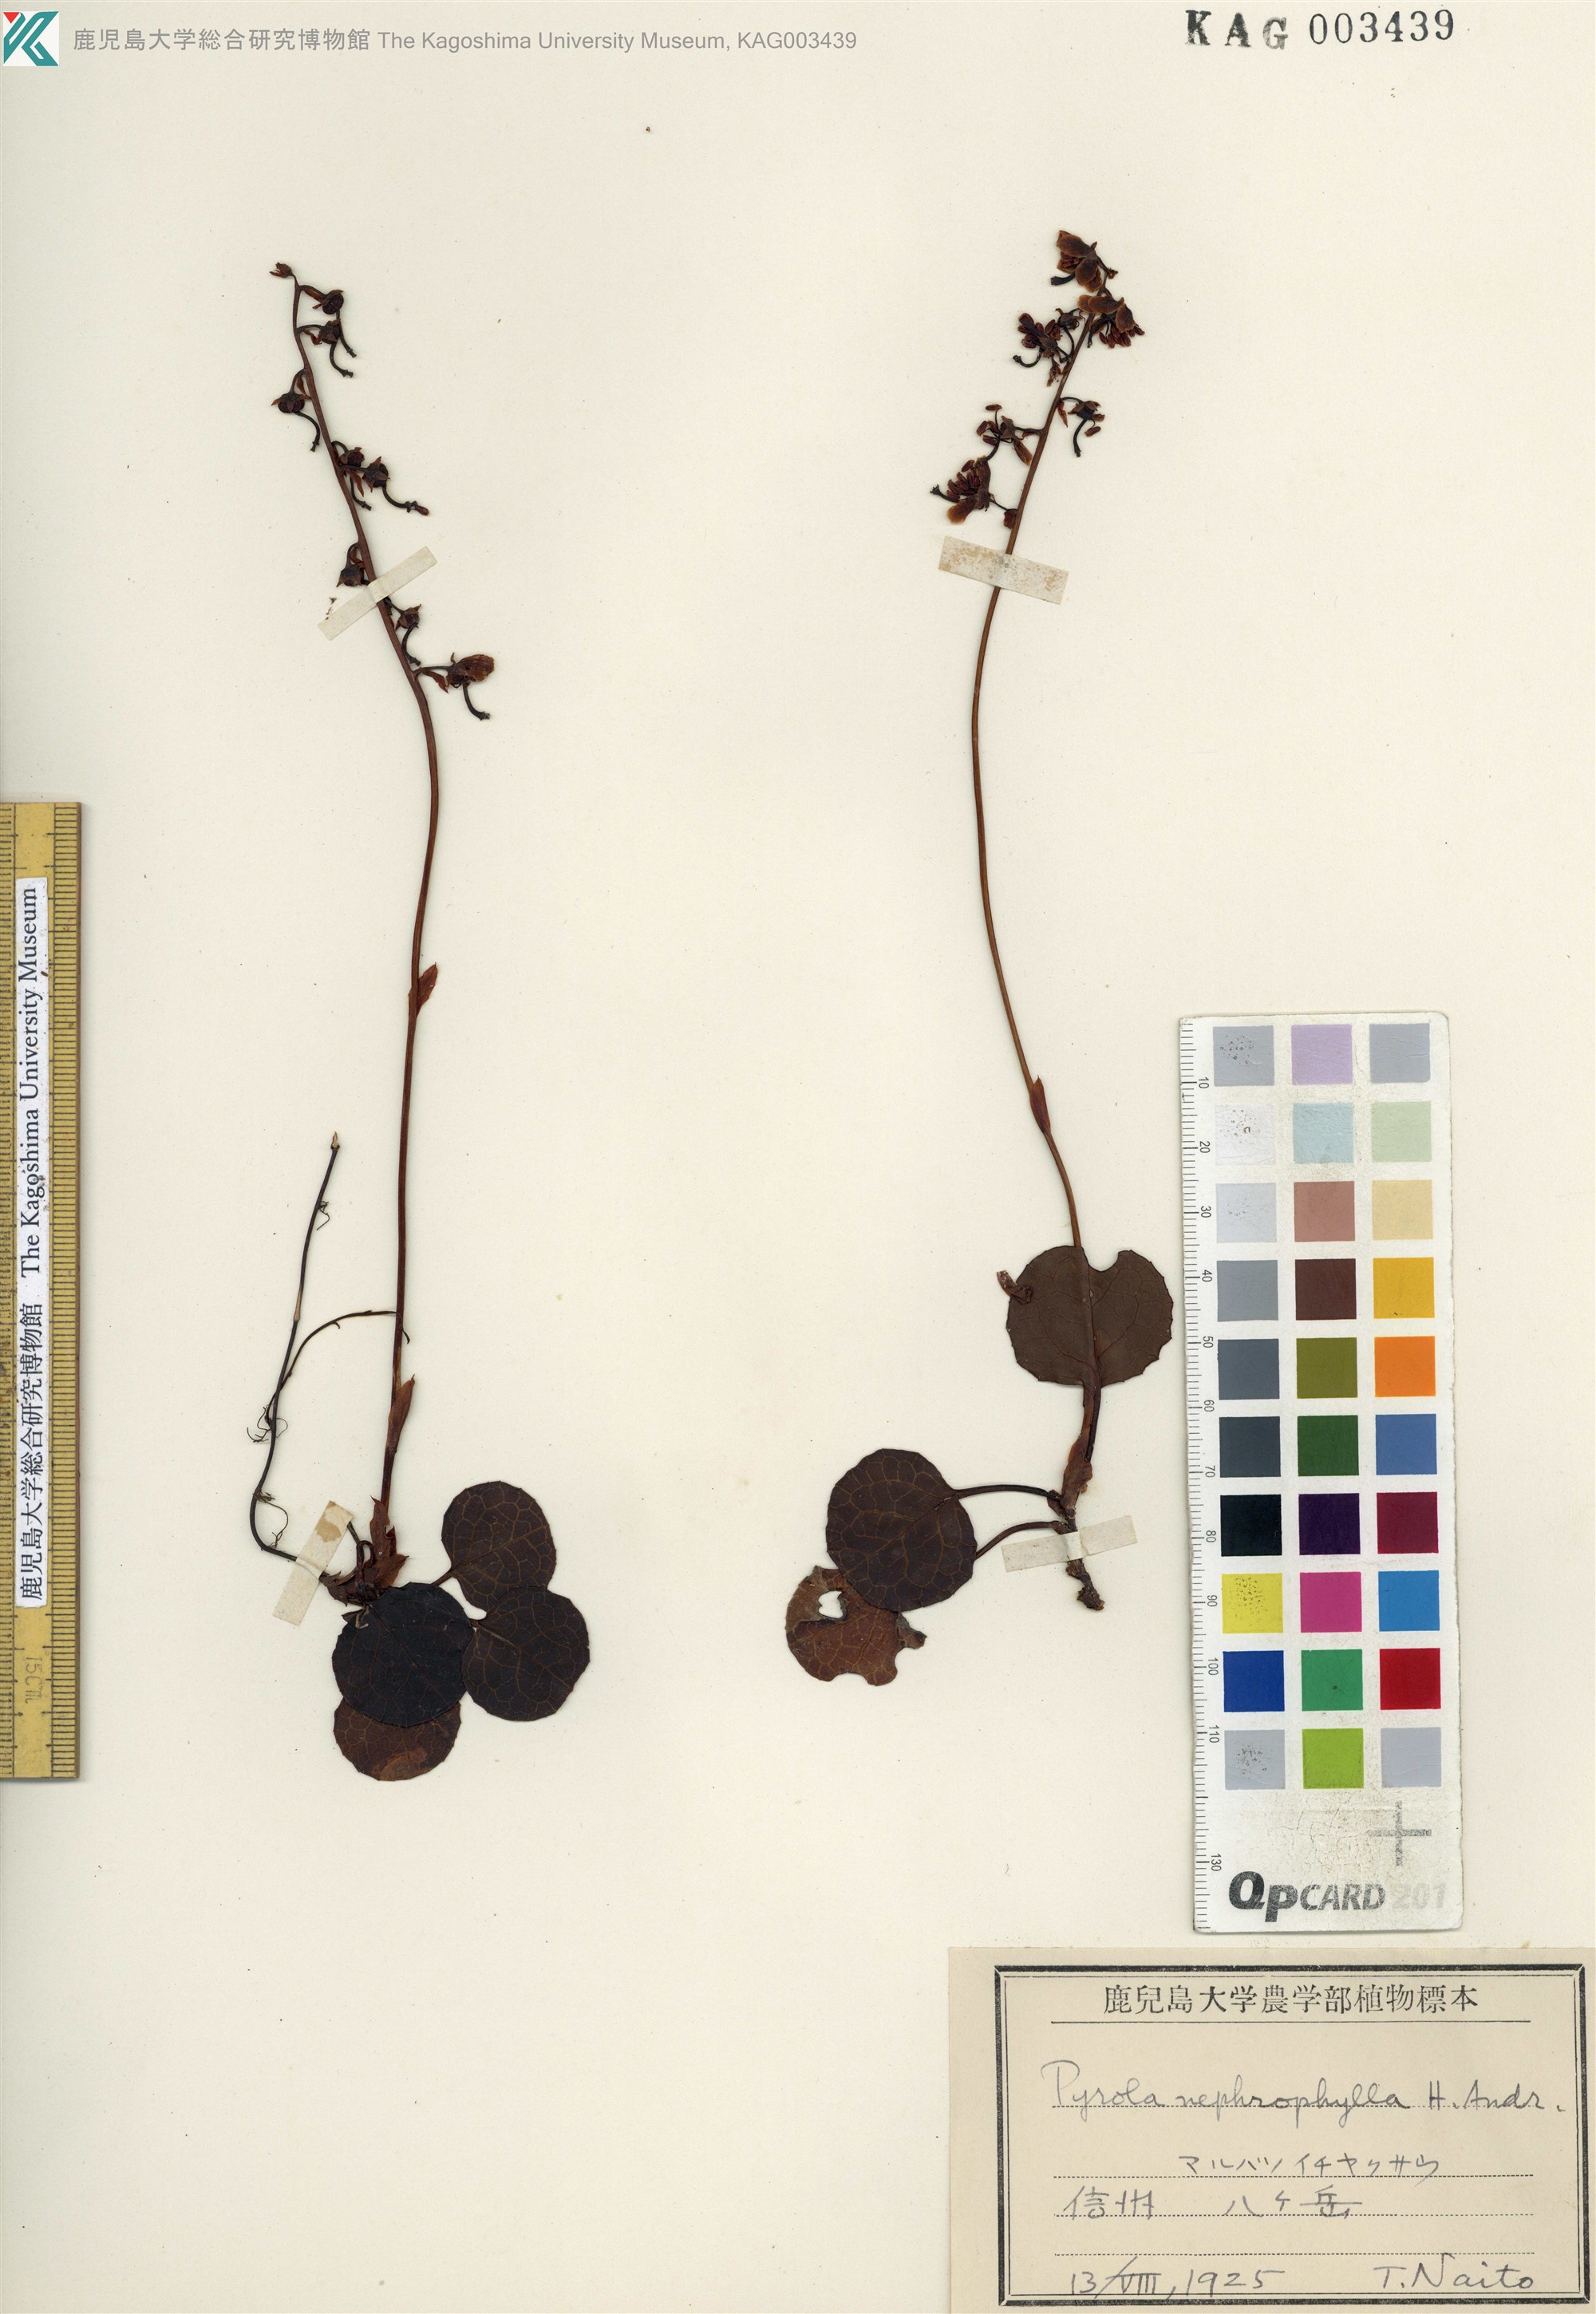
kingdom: Plantae
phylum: Tracheophyta
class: Magnoliopsida
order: Ericales
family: Ericaceae
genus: Pyrola
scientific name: Pyrola nephrophylla
